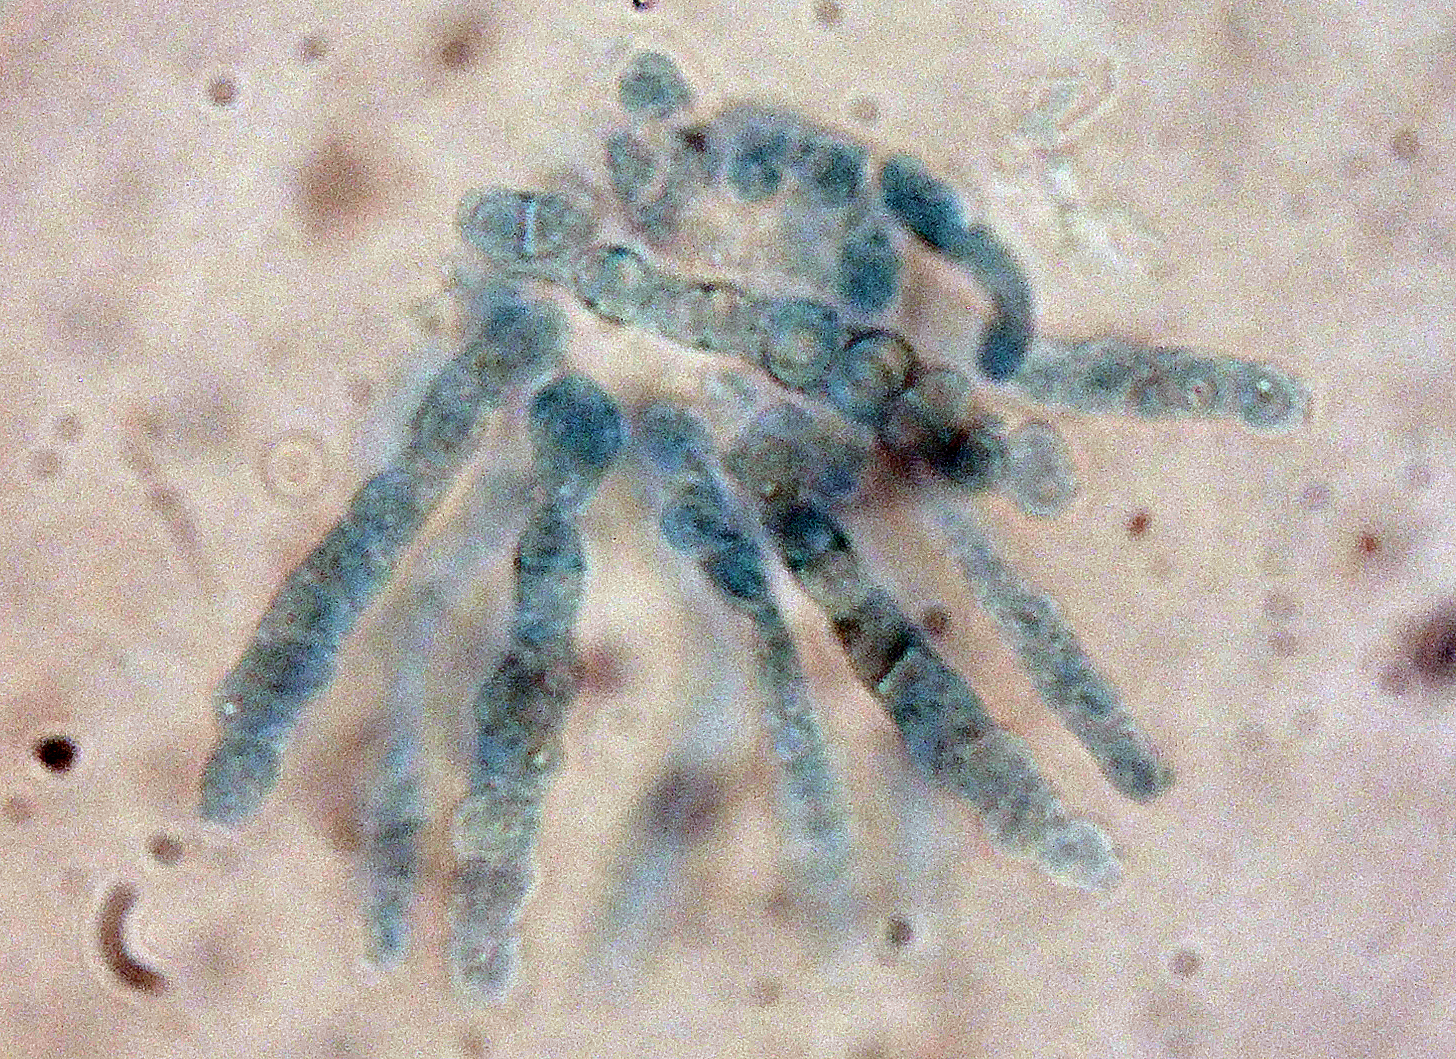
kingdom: Fungi
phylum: Ascomycota
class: Sordariomycetes
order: Hypocreales
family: Bionectriaceae
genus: Nectriopsis
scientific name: Nectriopsis queletii
